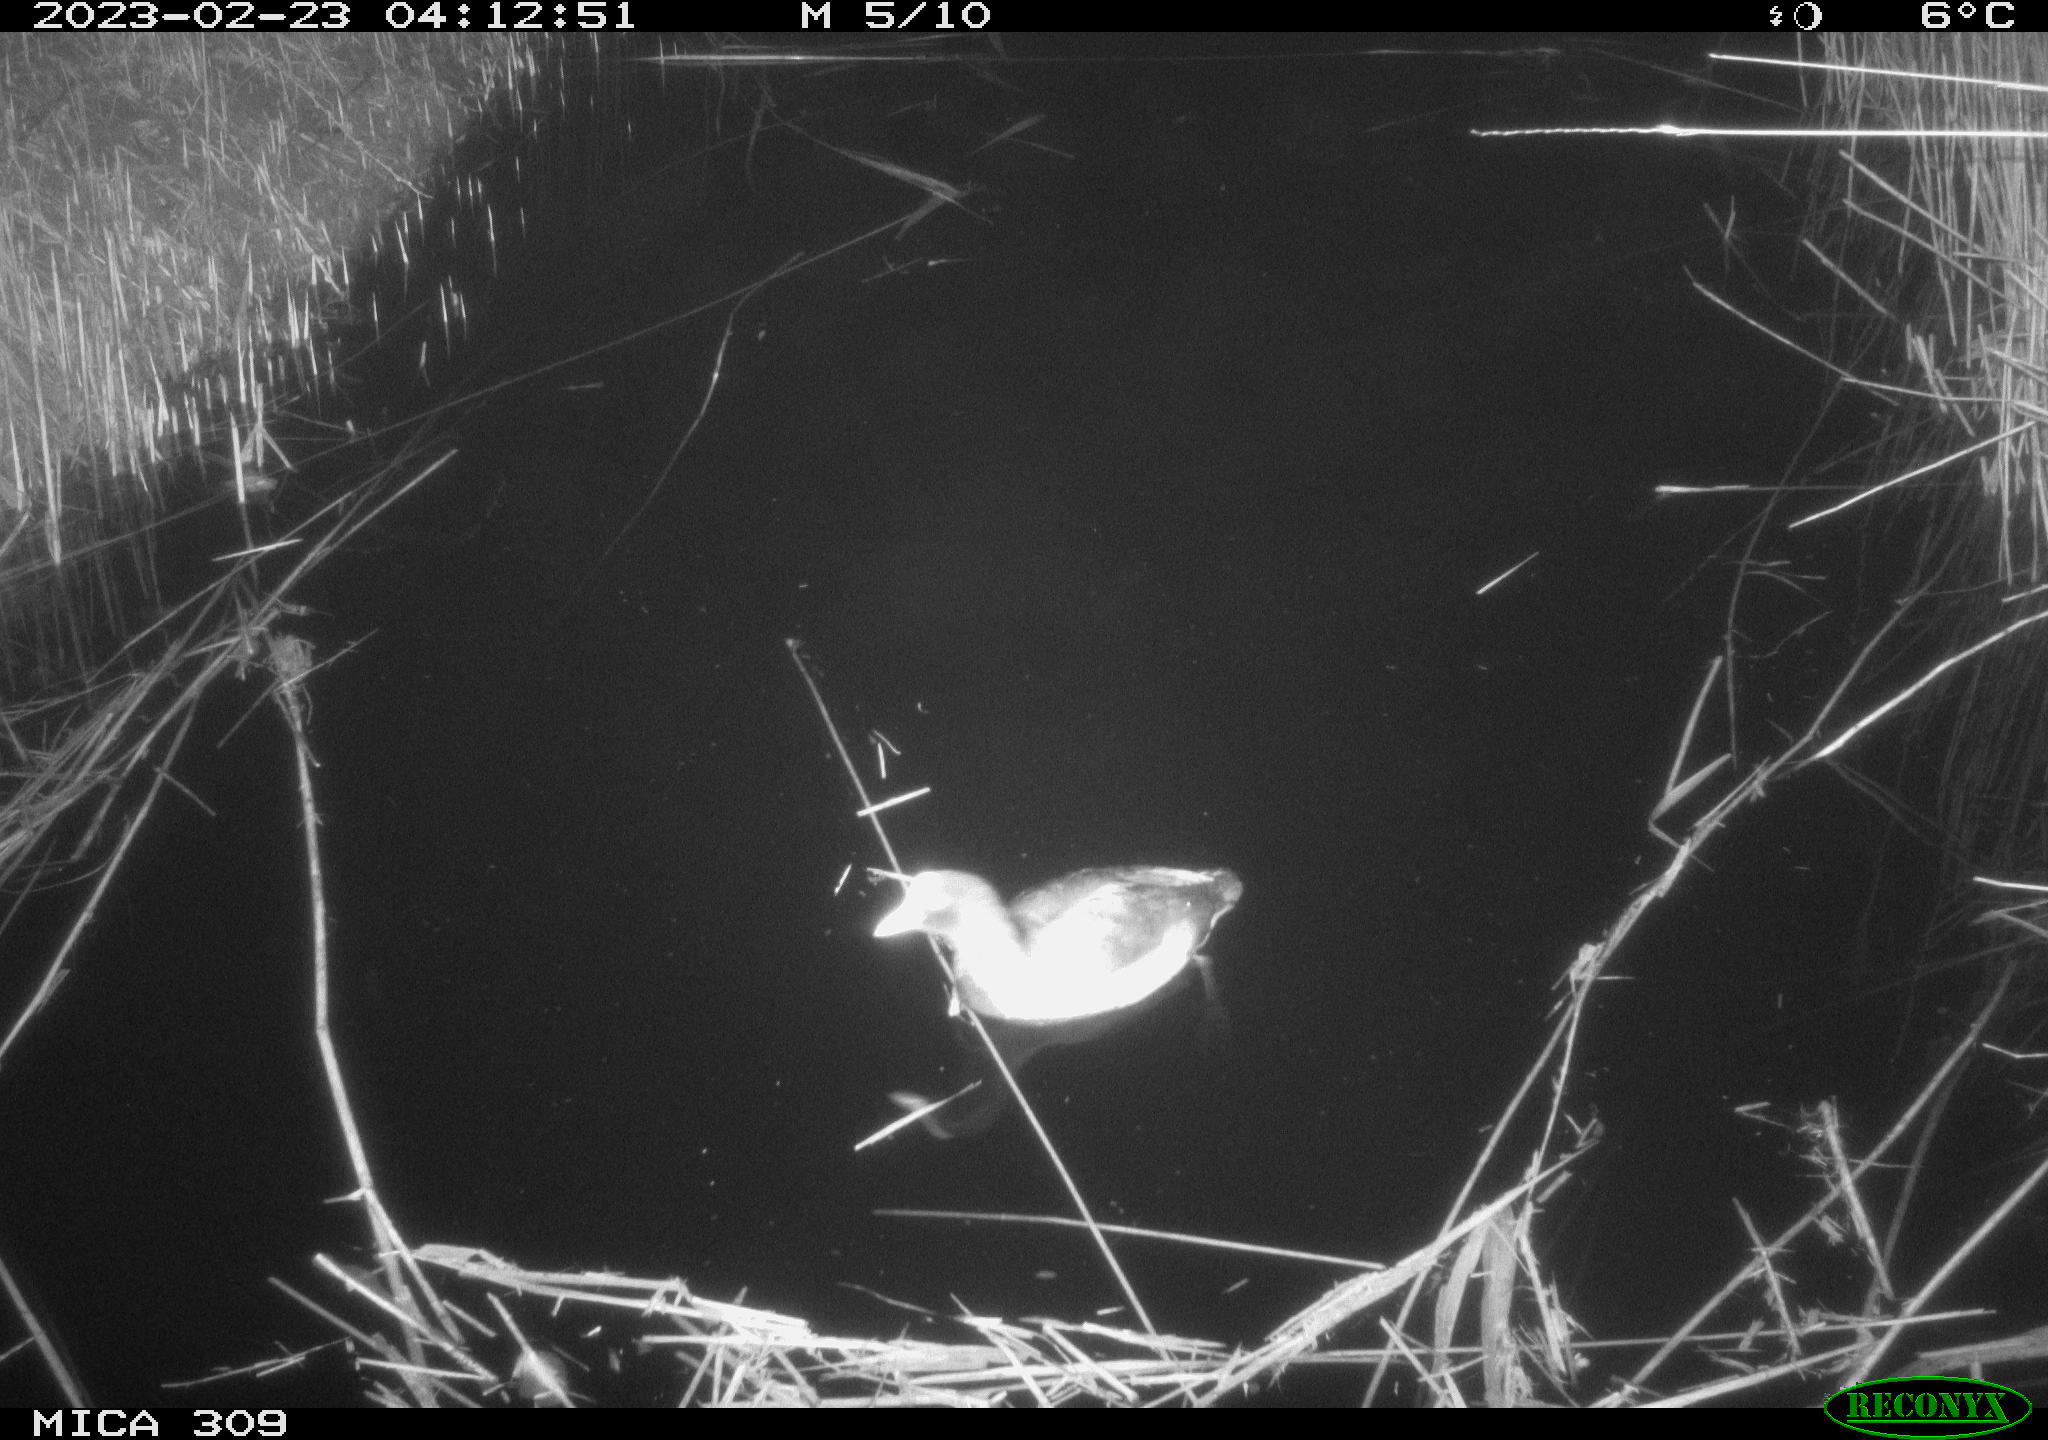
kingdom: Animalia
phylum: Chordata
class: Aves
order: Anseriformes
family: Anatidae
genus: Anas
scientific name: Anas
